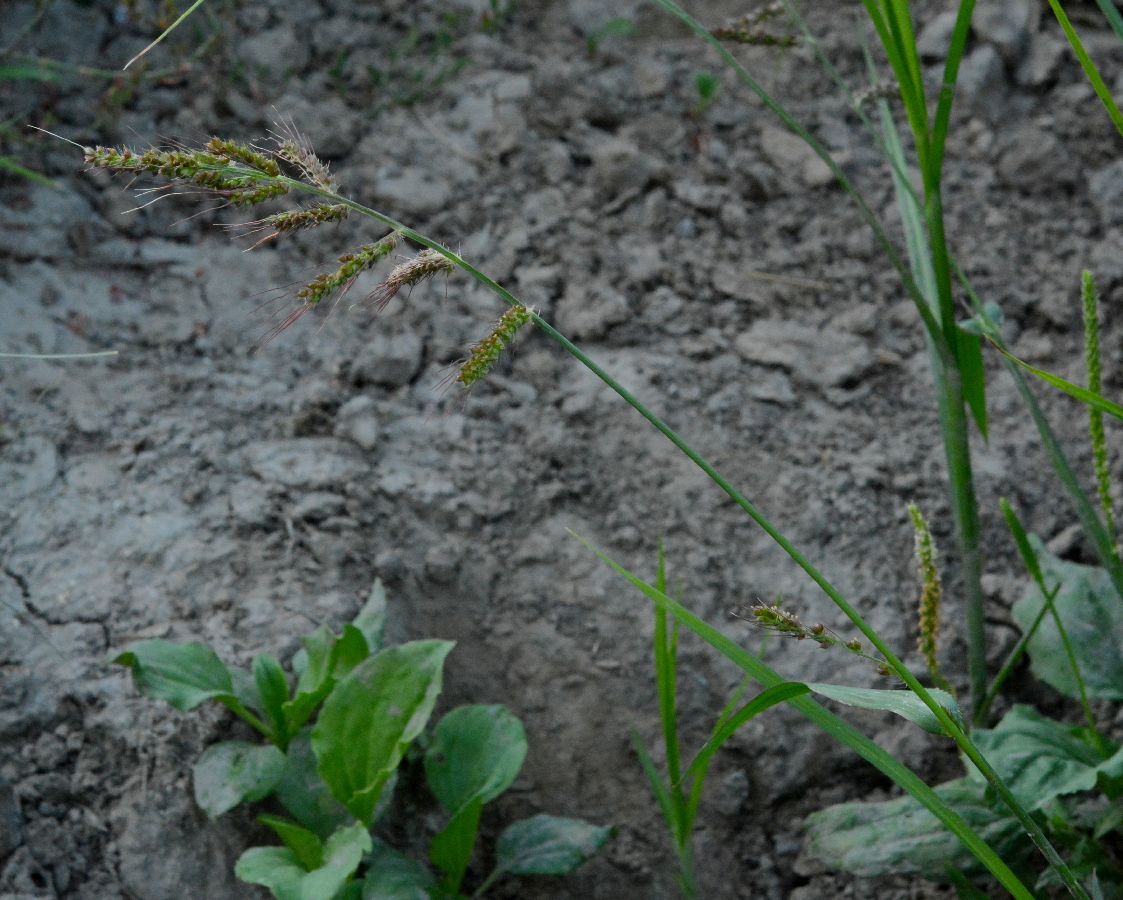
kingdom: Plantae
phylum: Tracheophyta
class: Liliopsida
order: Poales
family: Poaceae
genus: Echinochloa
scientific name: Echinochloa crus-galli
